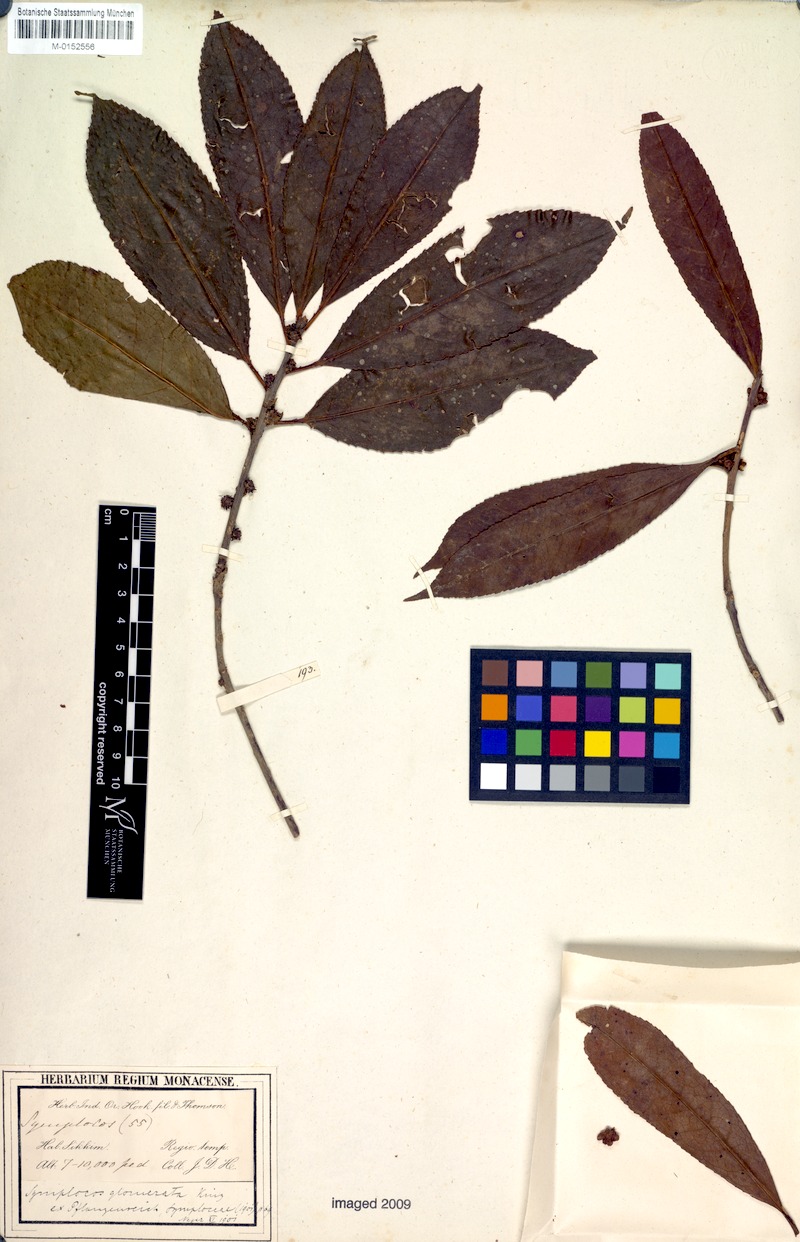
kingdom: Plantae
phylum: Tracheophyta
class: Magnoliopsida
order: Ericales
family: Symplocaceae
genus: Symplocos
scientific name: Symplocos glomerata
